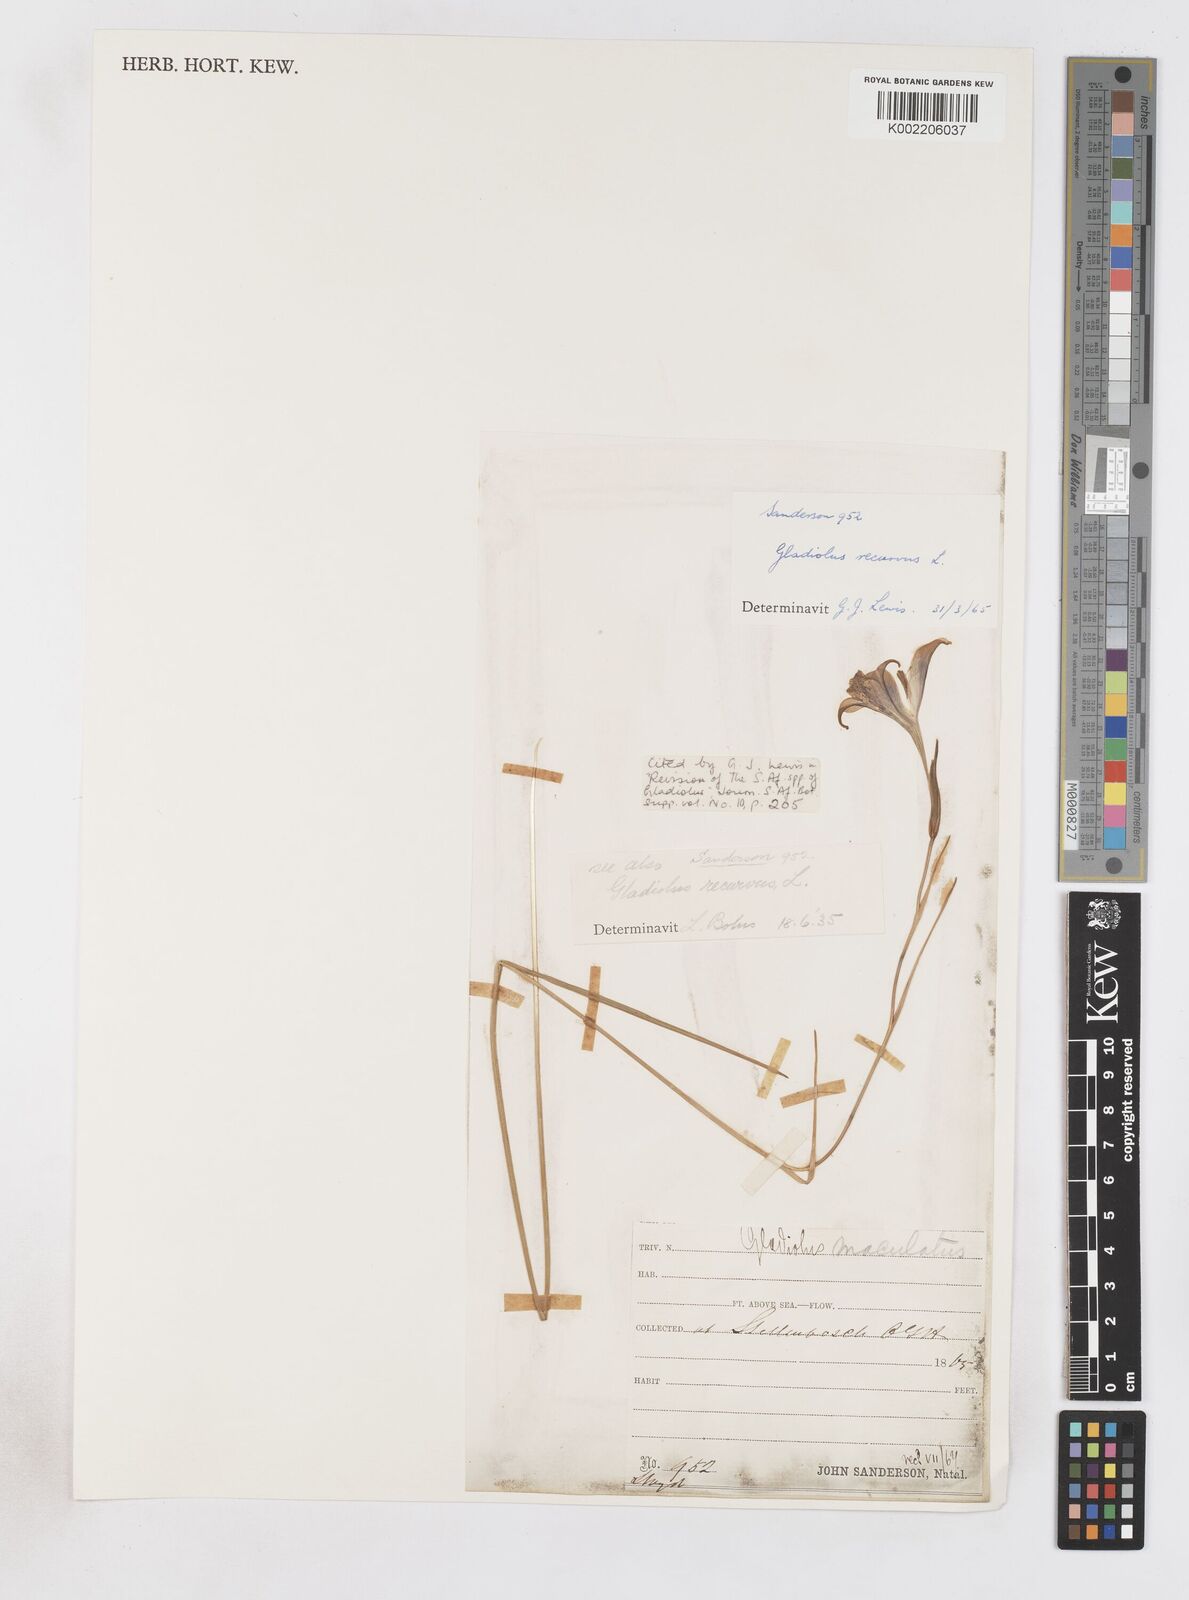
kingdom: Plantae
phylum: Tracheophyta
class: Liliopsida
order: Asparagales
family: Iridaceae
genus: Gladiolus
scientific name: Gladiolus recurvus
